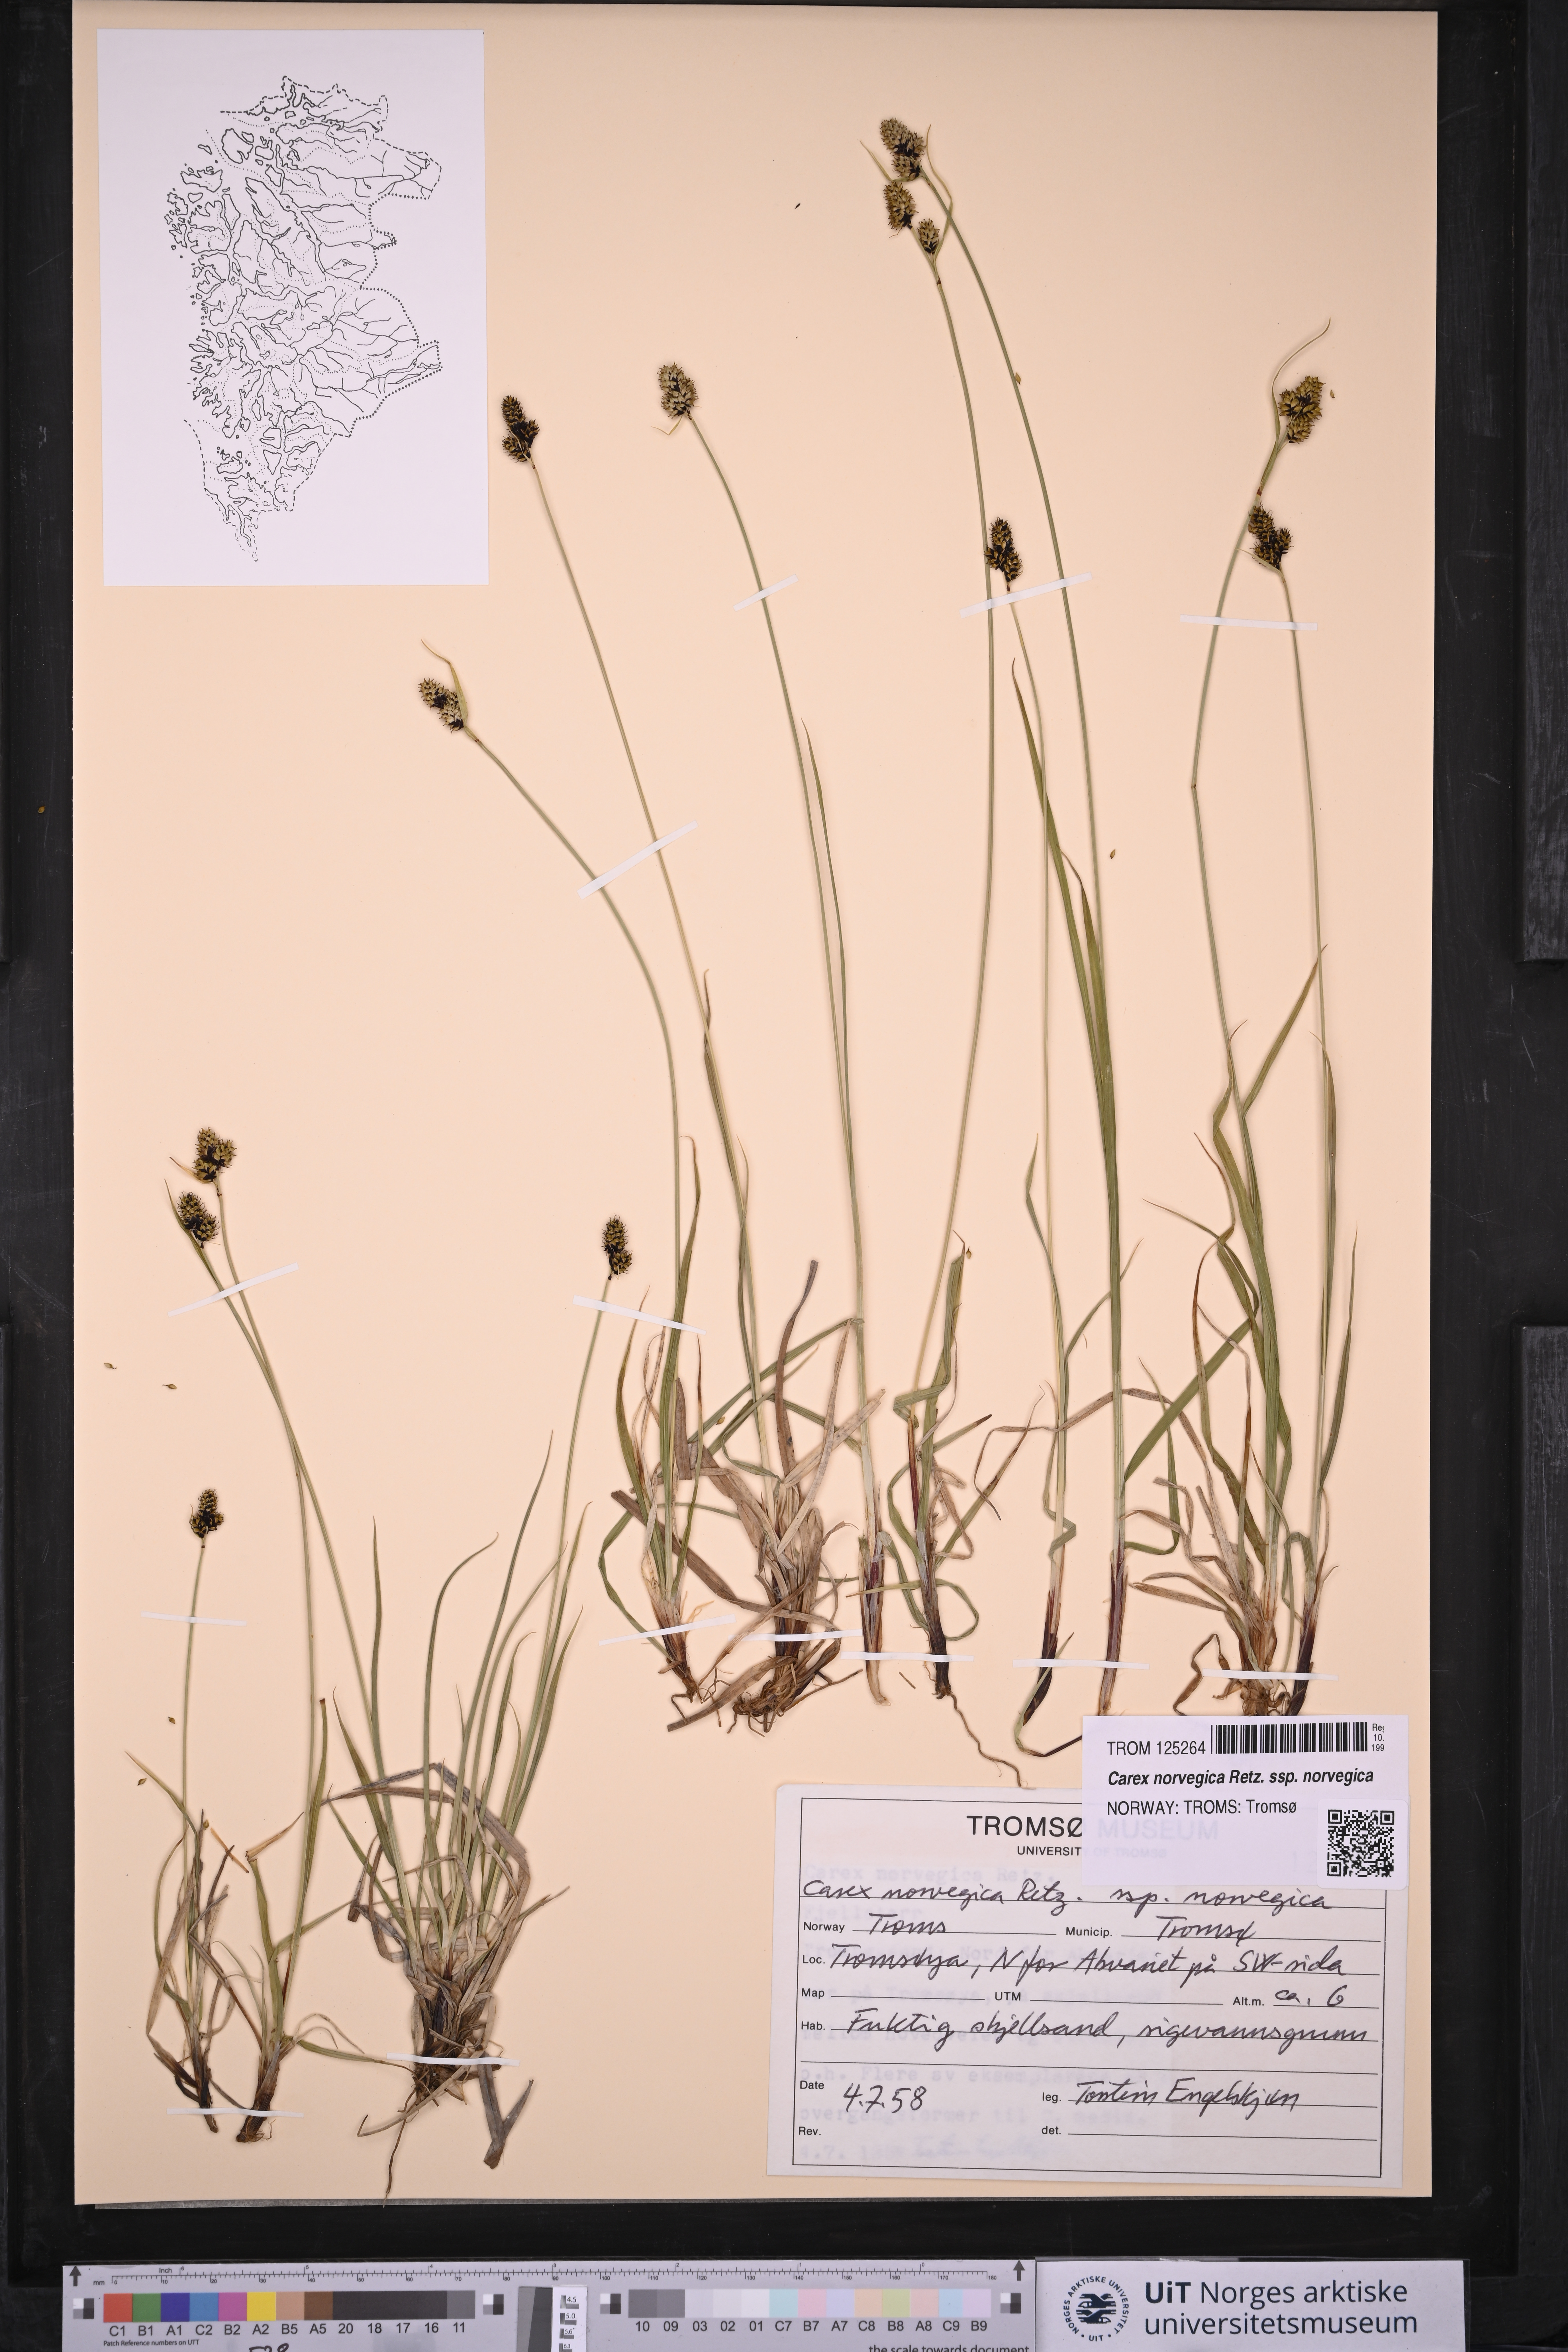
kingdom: Plantae
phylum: Tracheophyta
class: Liliopsida
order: Poales
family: Cyperaceae
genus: Carex
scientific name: Carex norvegica
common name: Close-headed alpine-sedge
